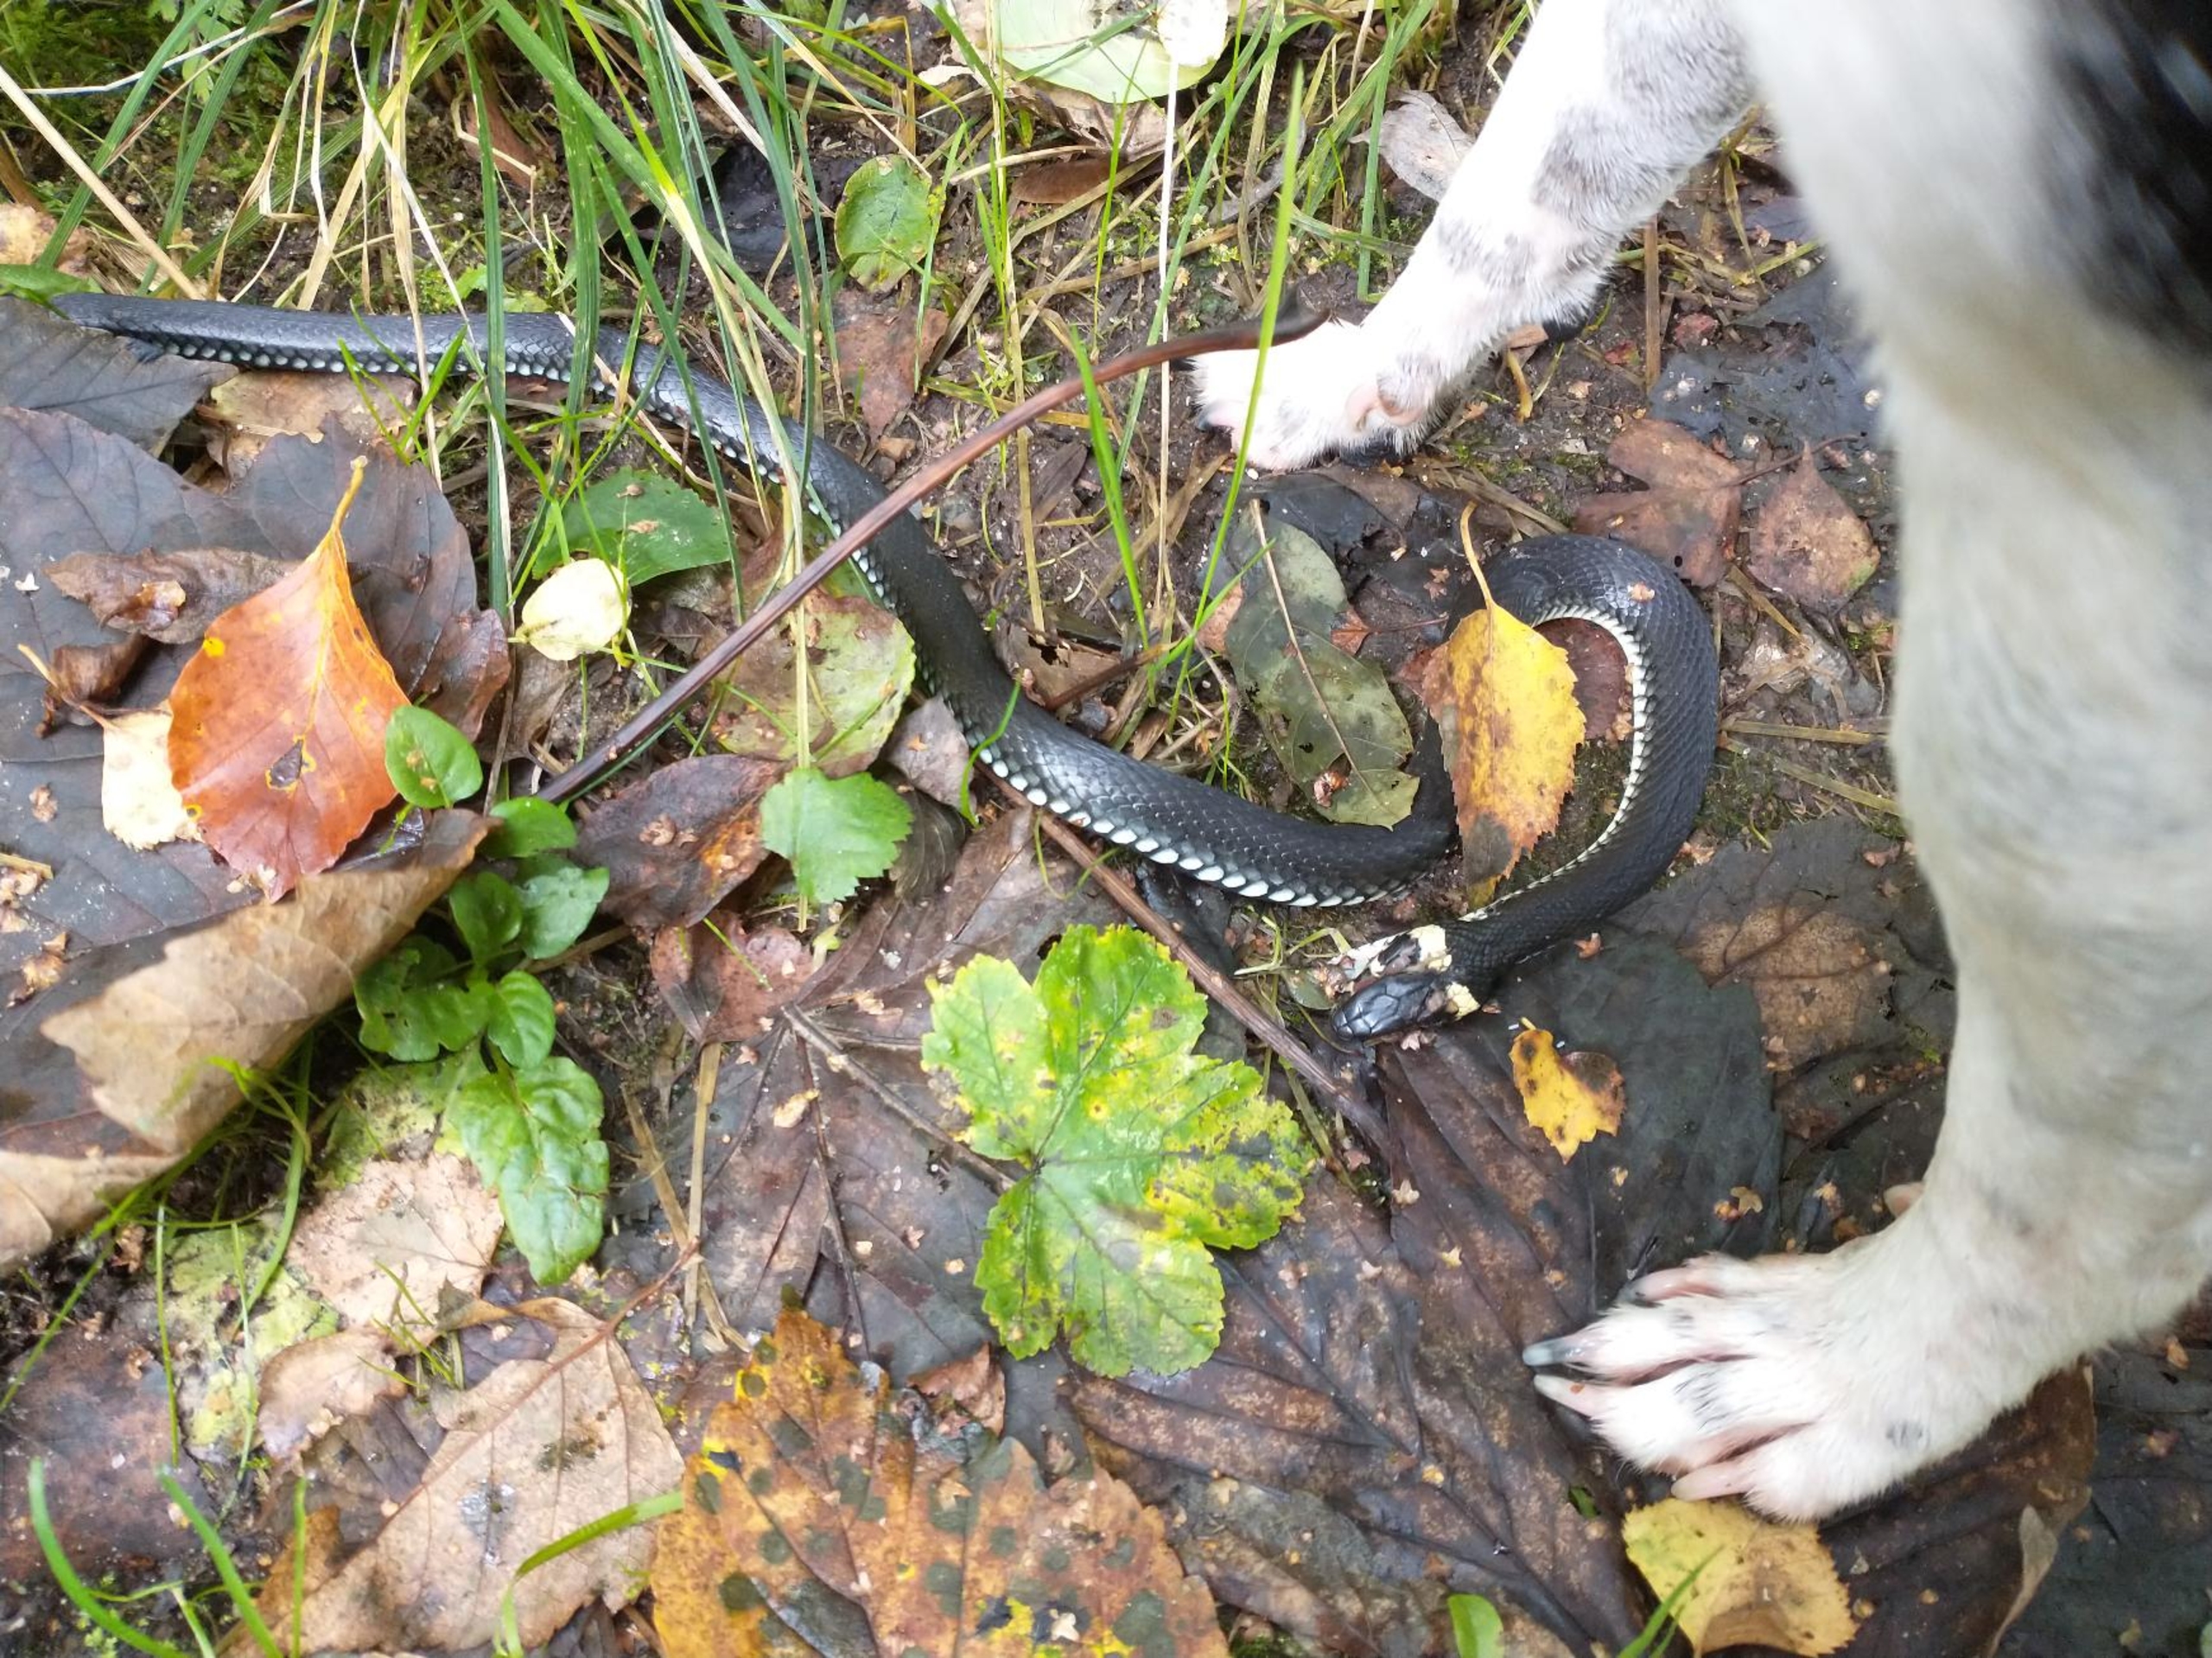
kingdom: Animalia
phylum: Chordata
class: Squamata
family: Colubridae
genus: Natrix
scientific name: Natrix natrix
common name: Snog
